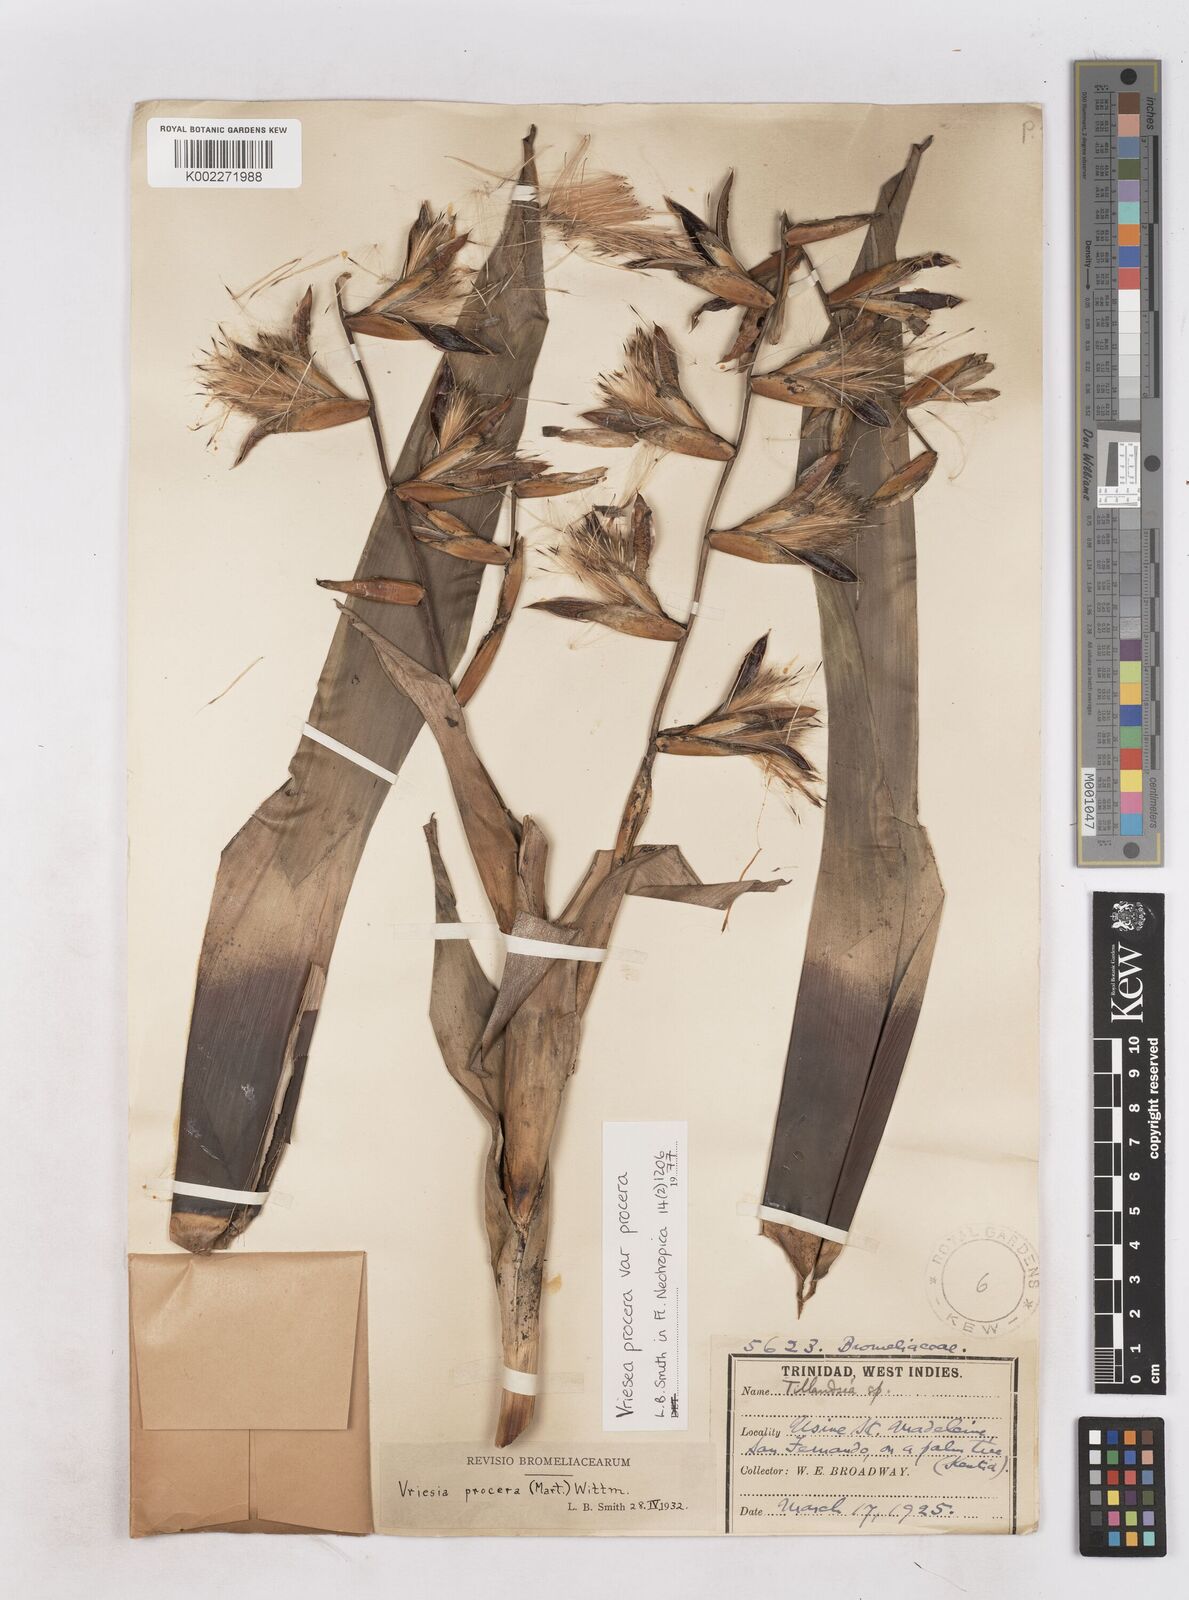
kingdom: Plantae
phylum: Tracheophyta
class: Liliopsida
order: Poales
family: Bromeliaceae
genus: Vriesea
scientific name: Vriesea procera
